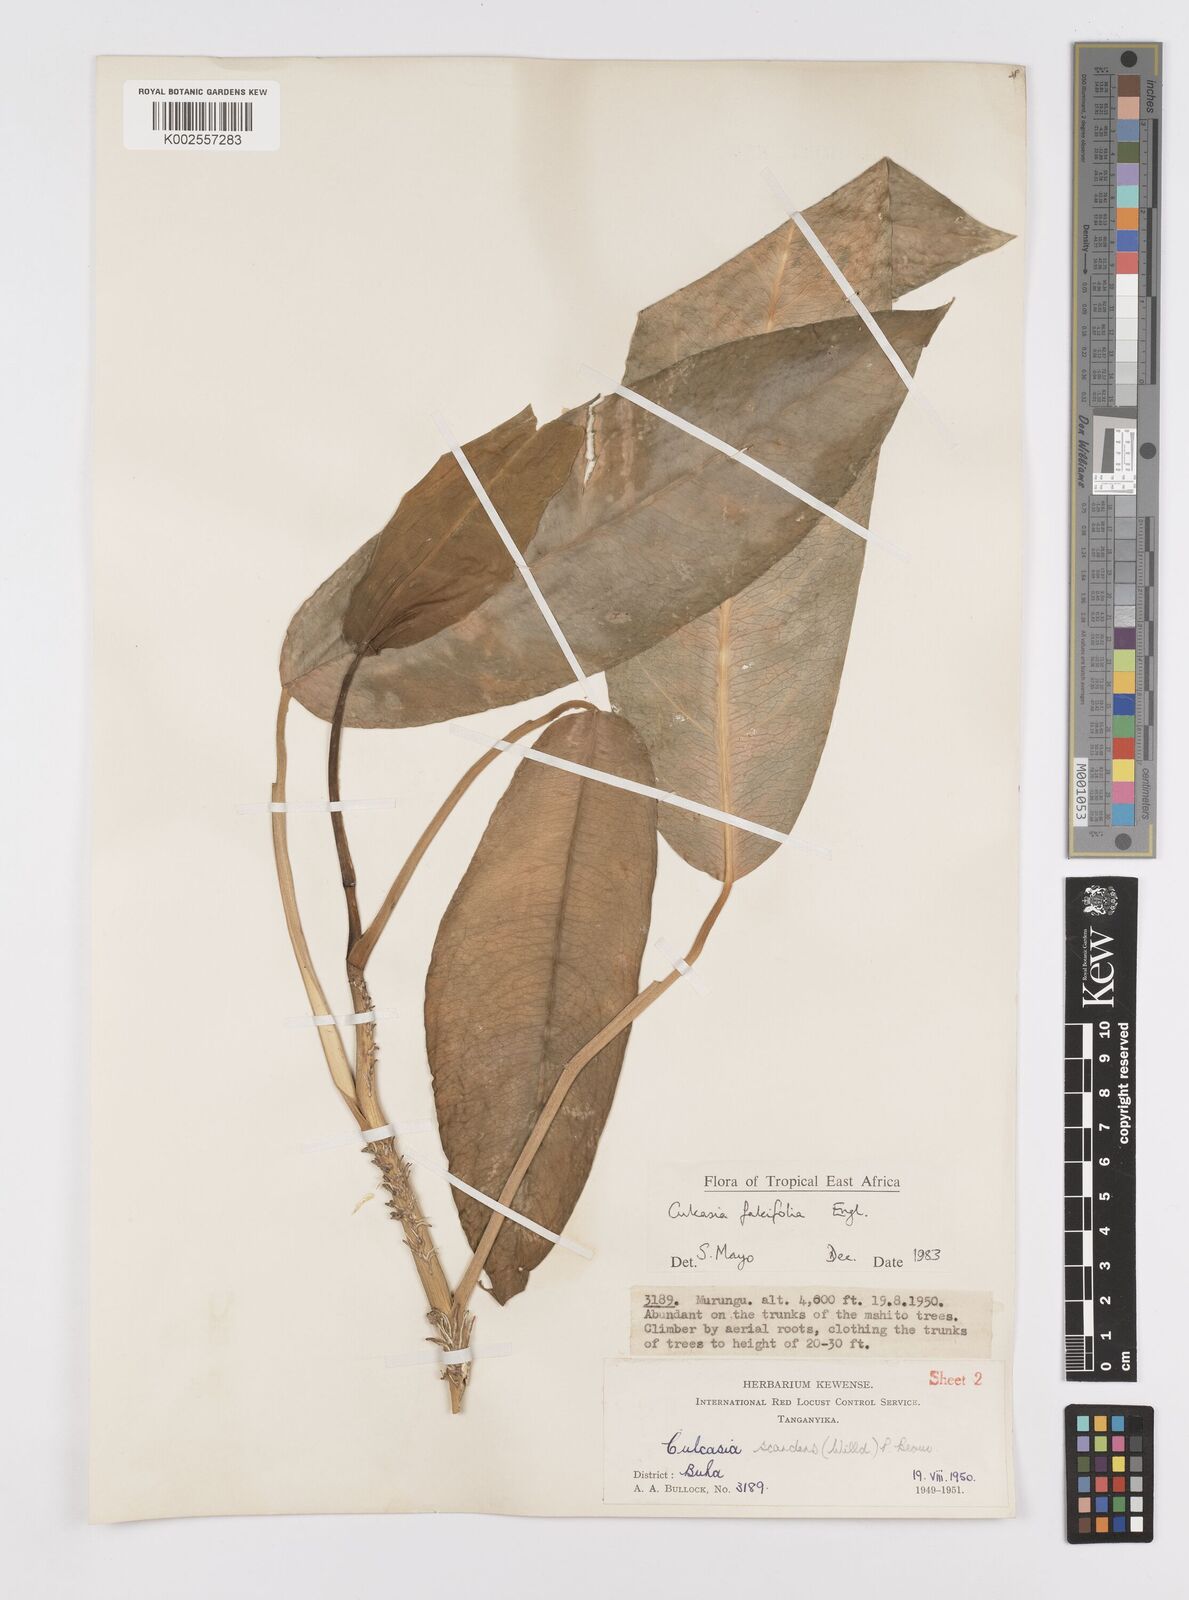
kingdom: Plantae
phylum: Tracheophyta
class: Liliopsida
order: Alismatales
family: Araceae
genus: Culcasia
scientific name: Culcasia falcifolia
